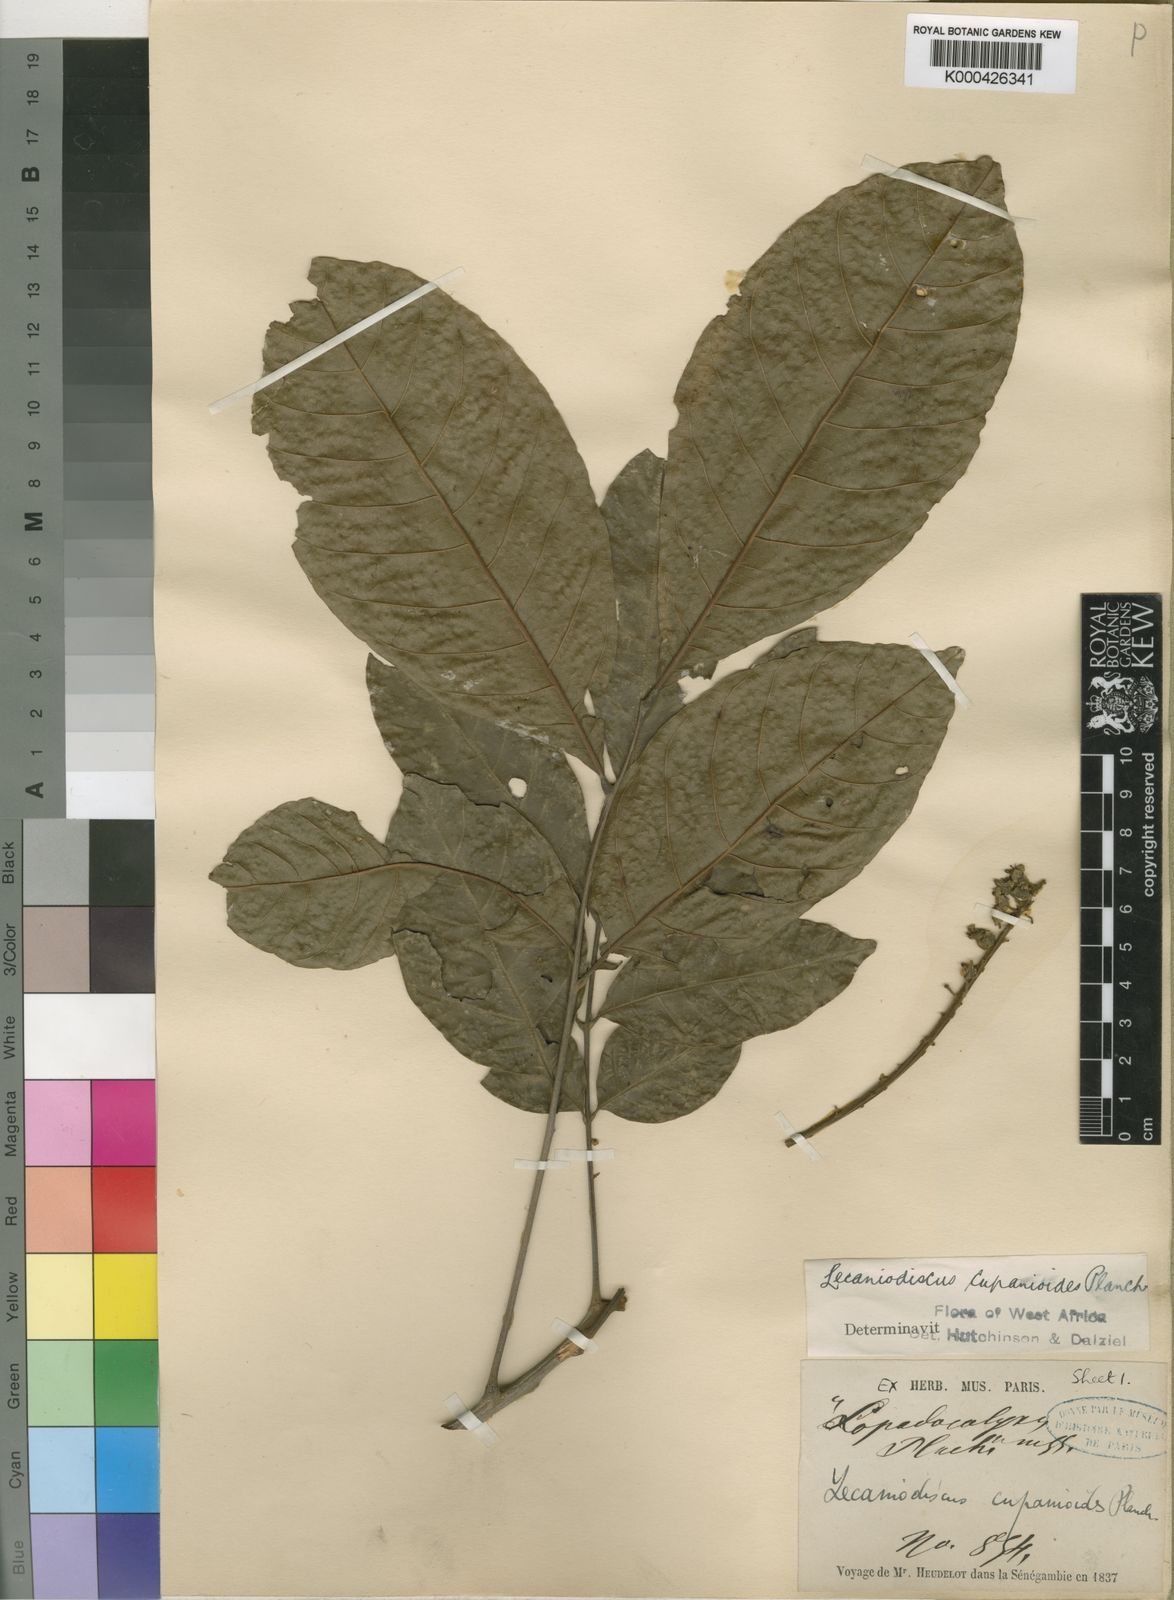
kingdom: Plantae
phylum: Tracheophyta
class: Magnoliopsida
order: Sapindales
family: Sapindaceae
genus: Lecaniodiscus
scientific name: Lecaniodiscus
